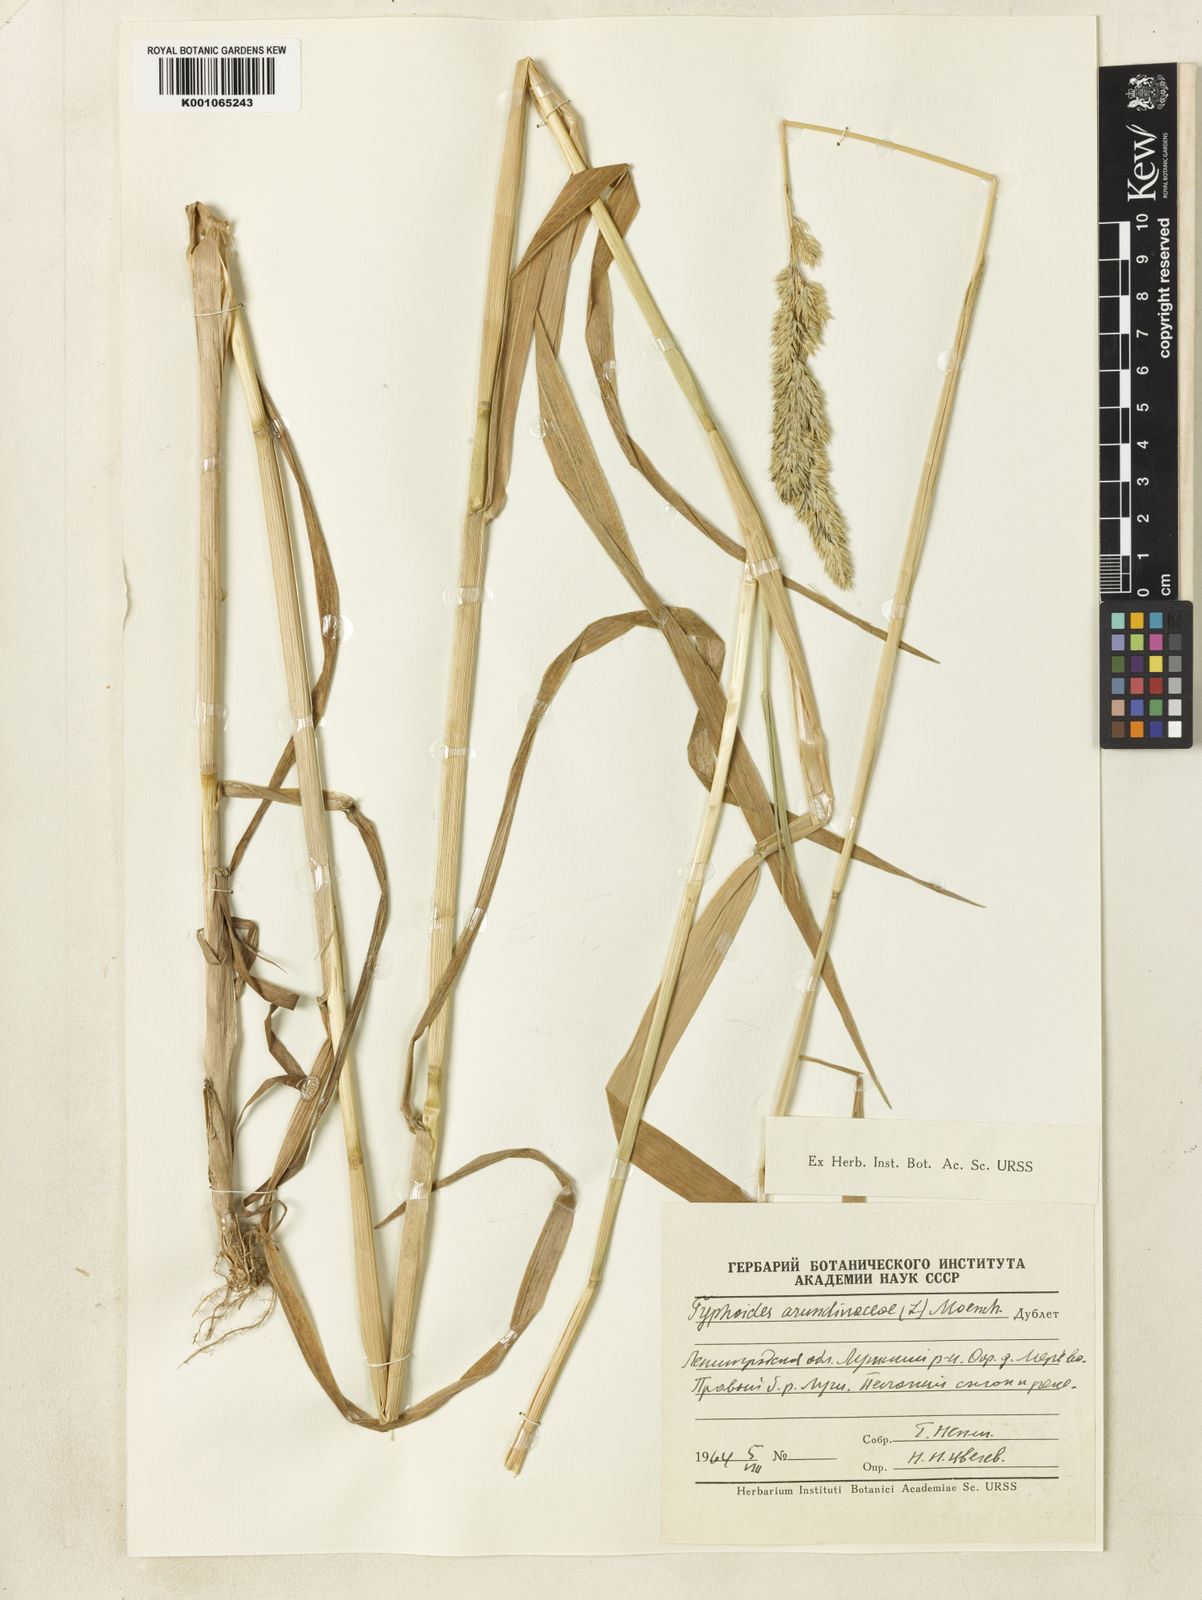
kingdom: Plantae
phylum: Tracheophyta
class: Liliopsida
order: Poales
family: Poaceae
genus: Phalaris
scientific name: Phalaris arundinacea
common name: Reed canary-grass
